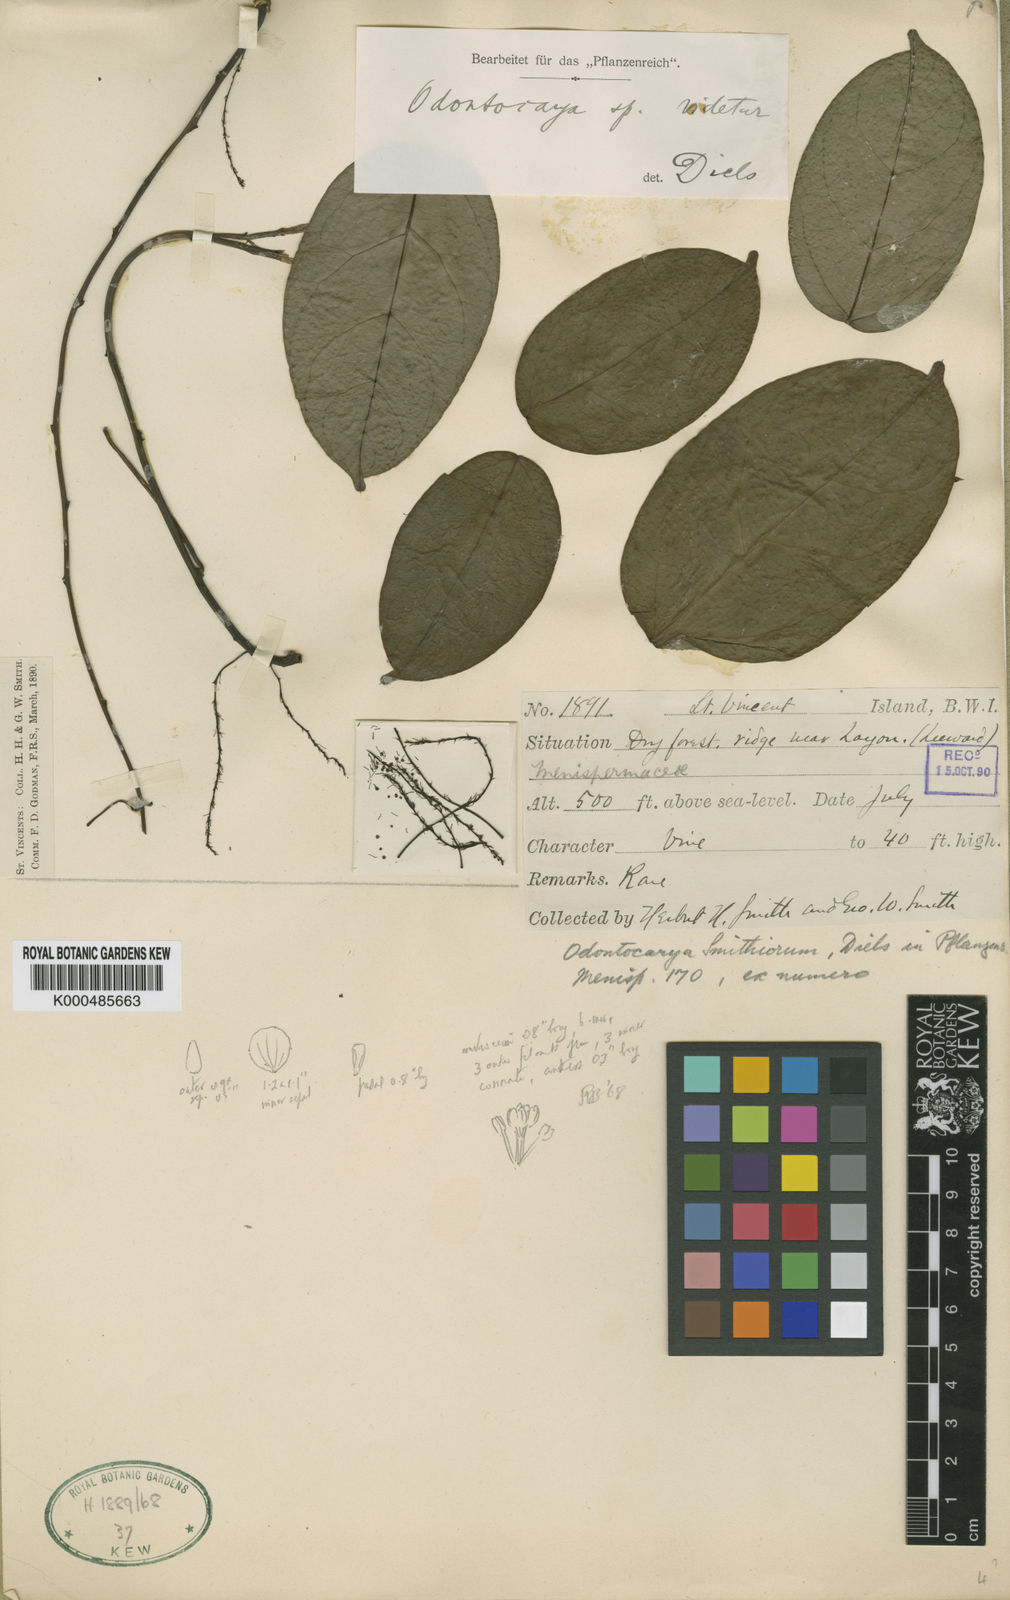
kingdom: Plantae
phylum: Tracheophyta
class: Magnoliopsida
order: Ranunculales
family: Menispermaceae
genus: Odontocarya
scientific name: Odontocarya smithiorum
